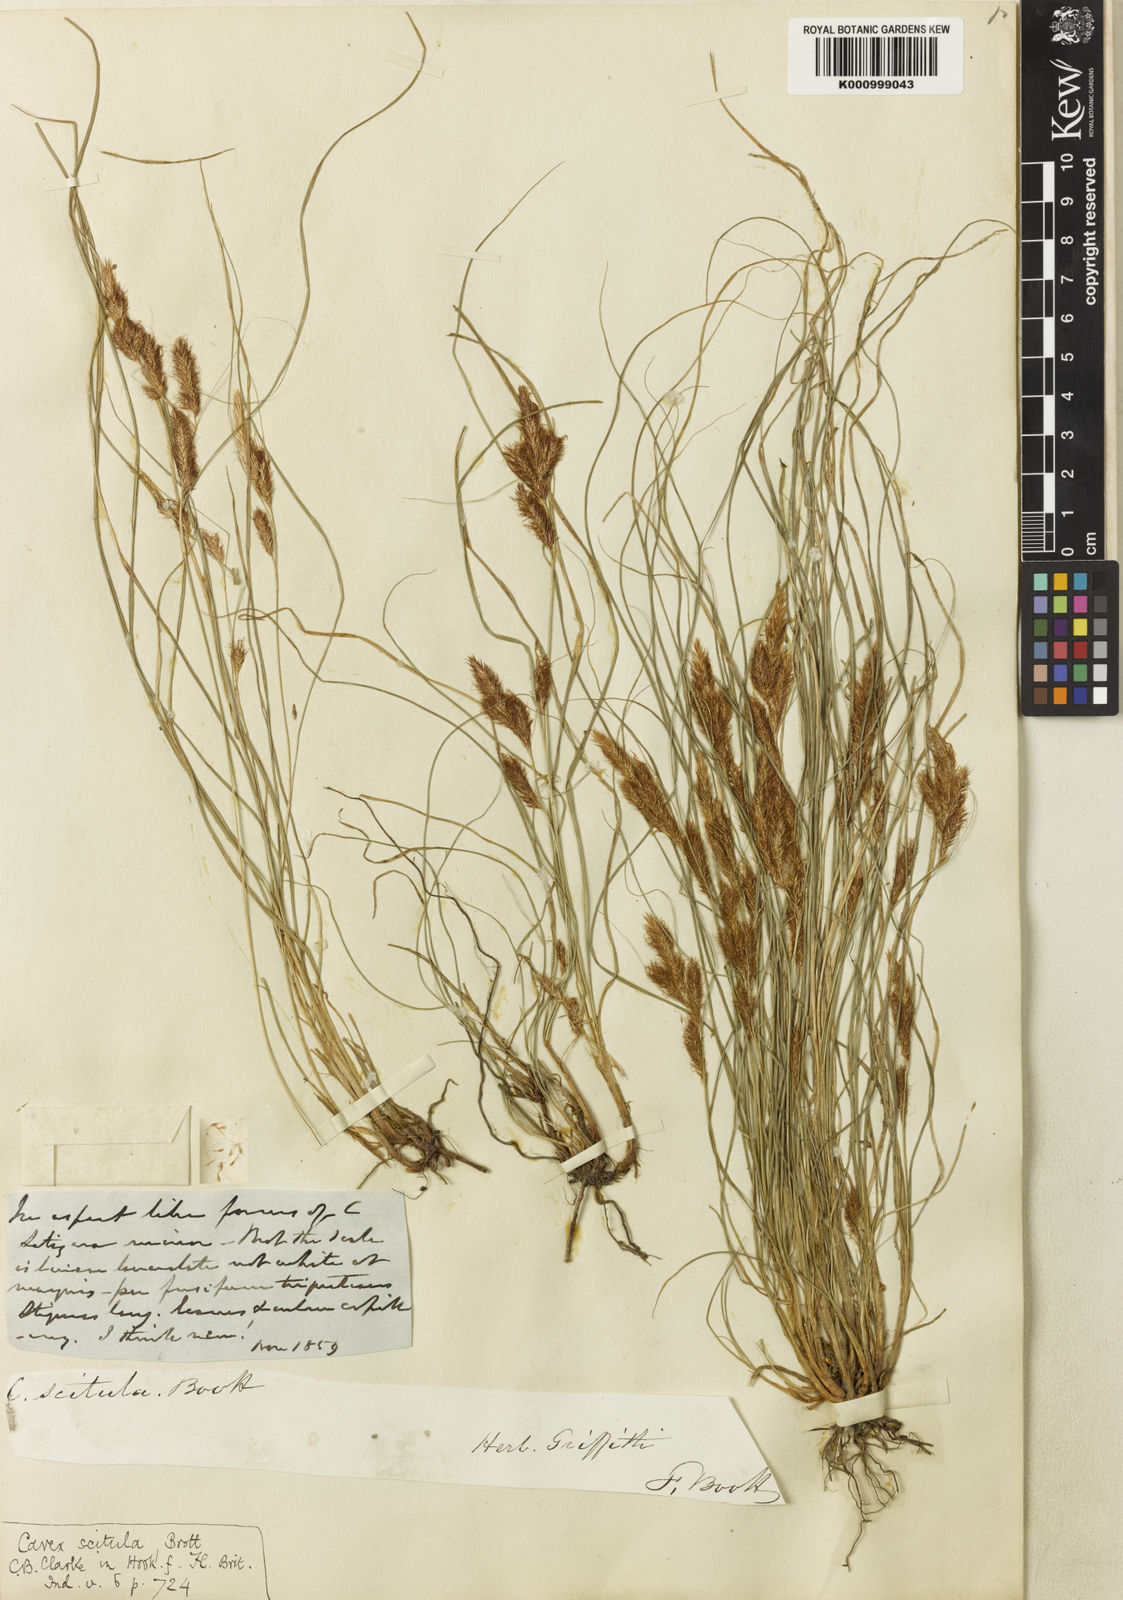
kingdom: Plantae
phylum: Tracheophyta
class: Liliopsida
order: Poales
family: Cyperaceae
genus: Carex
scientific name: Carex scitula
